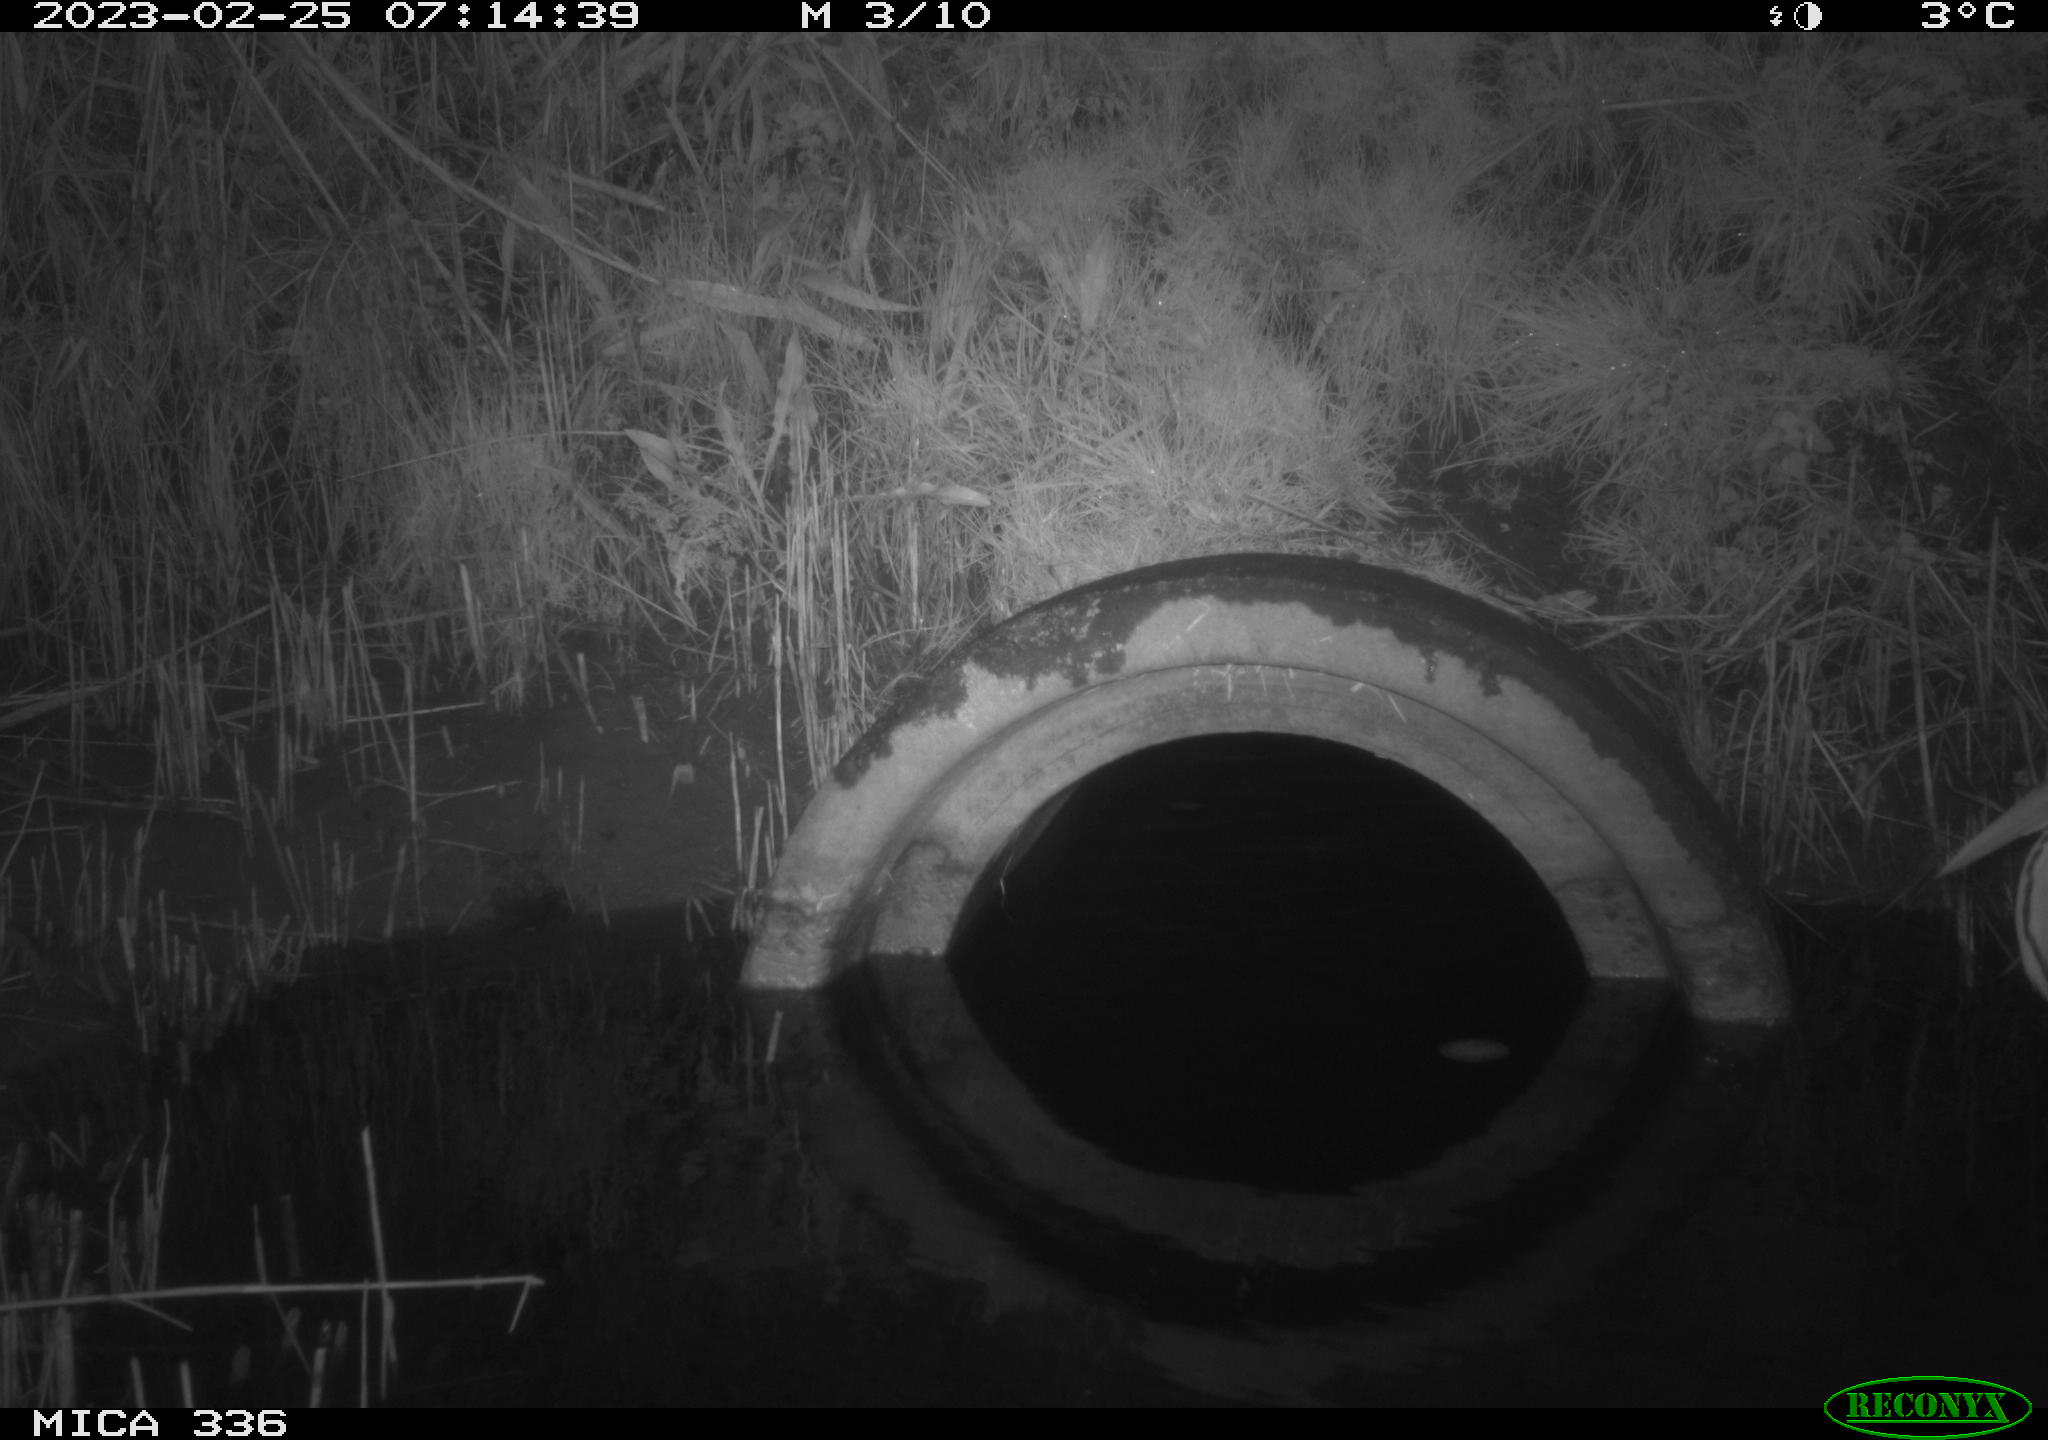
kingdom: Animalia
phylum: Chordata
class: Aves
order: Pelecaniformes
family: Ardeidae
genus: Ardea
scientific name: Ardea cinerea
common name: Grey heron
